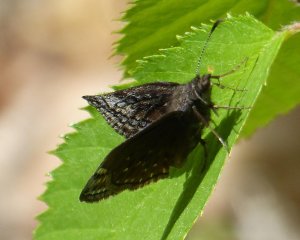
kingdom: Animalia
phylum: Arthropoda
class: Insecta
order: Lepidoptera
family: Hesperiidae
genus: Erynnis
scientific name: Erynnis icelus
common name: Dreamy Duskywing
